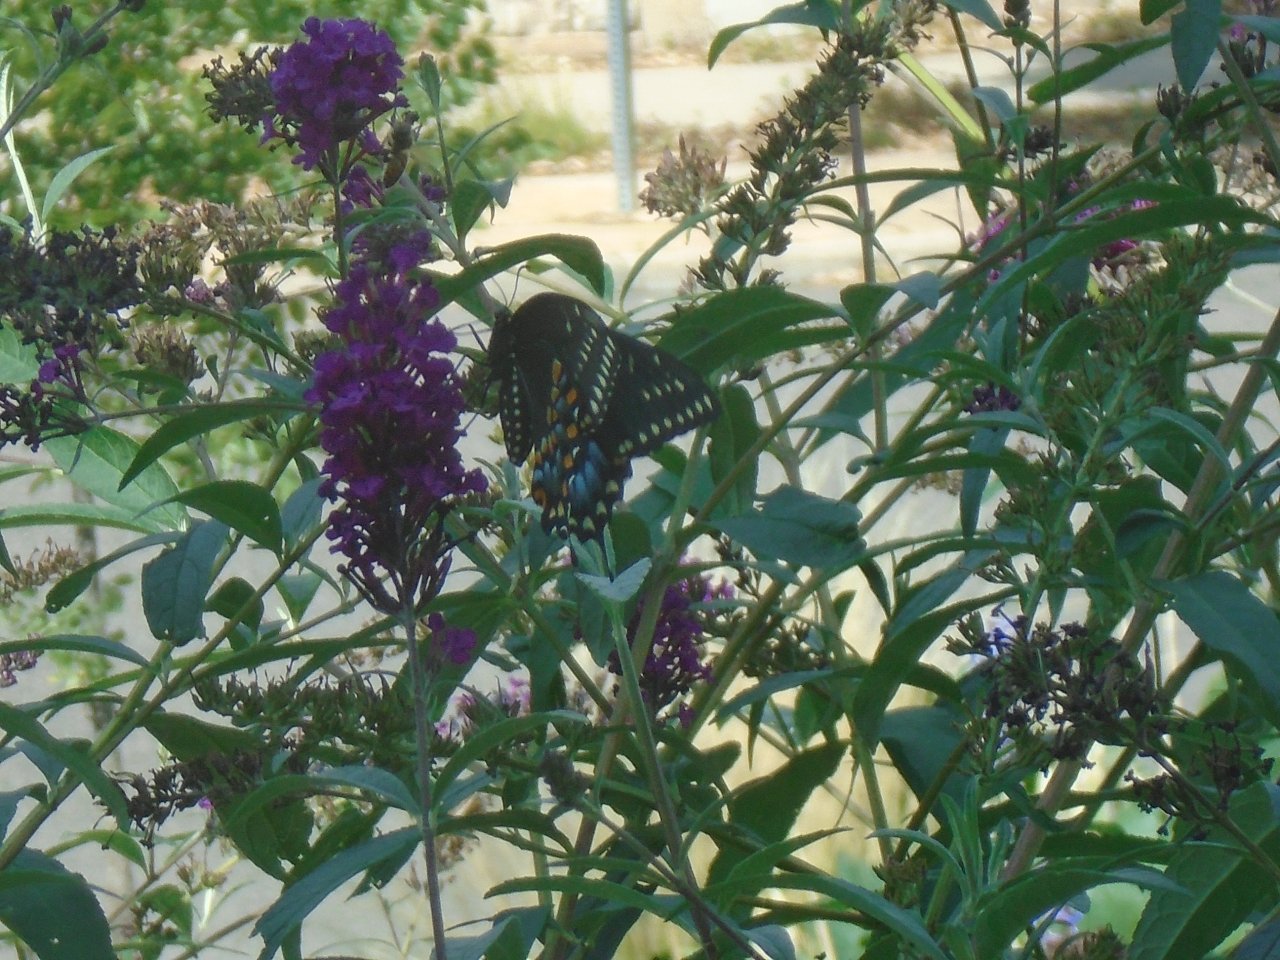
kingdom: Animalia
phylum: Arthropoda
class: Insecta
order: Lepidoptera
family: Papilionidae
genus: Pterourus
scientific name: Pterourus glaucus
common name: Eastern Tiger Swallowtail
